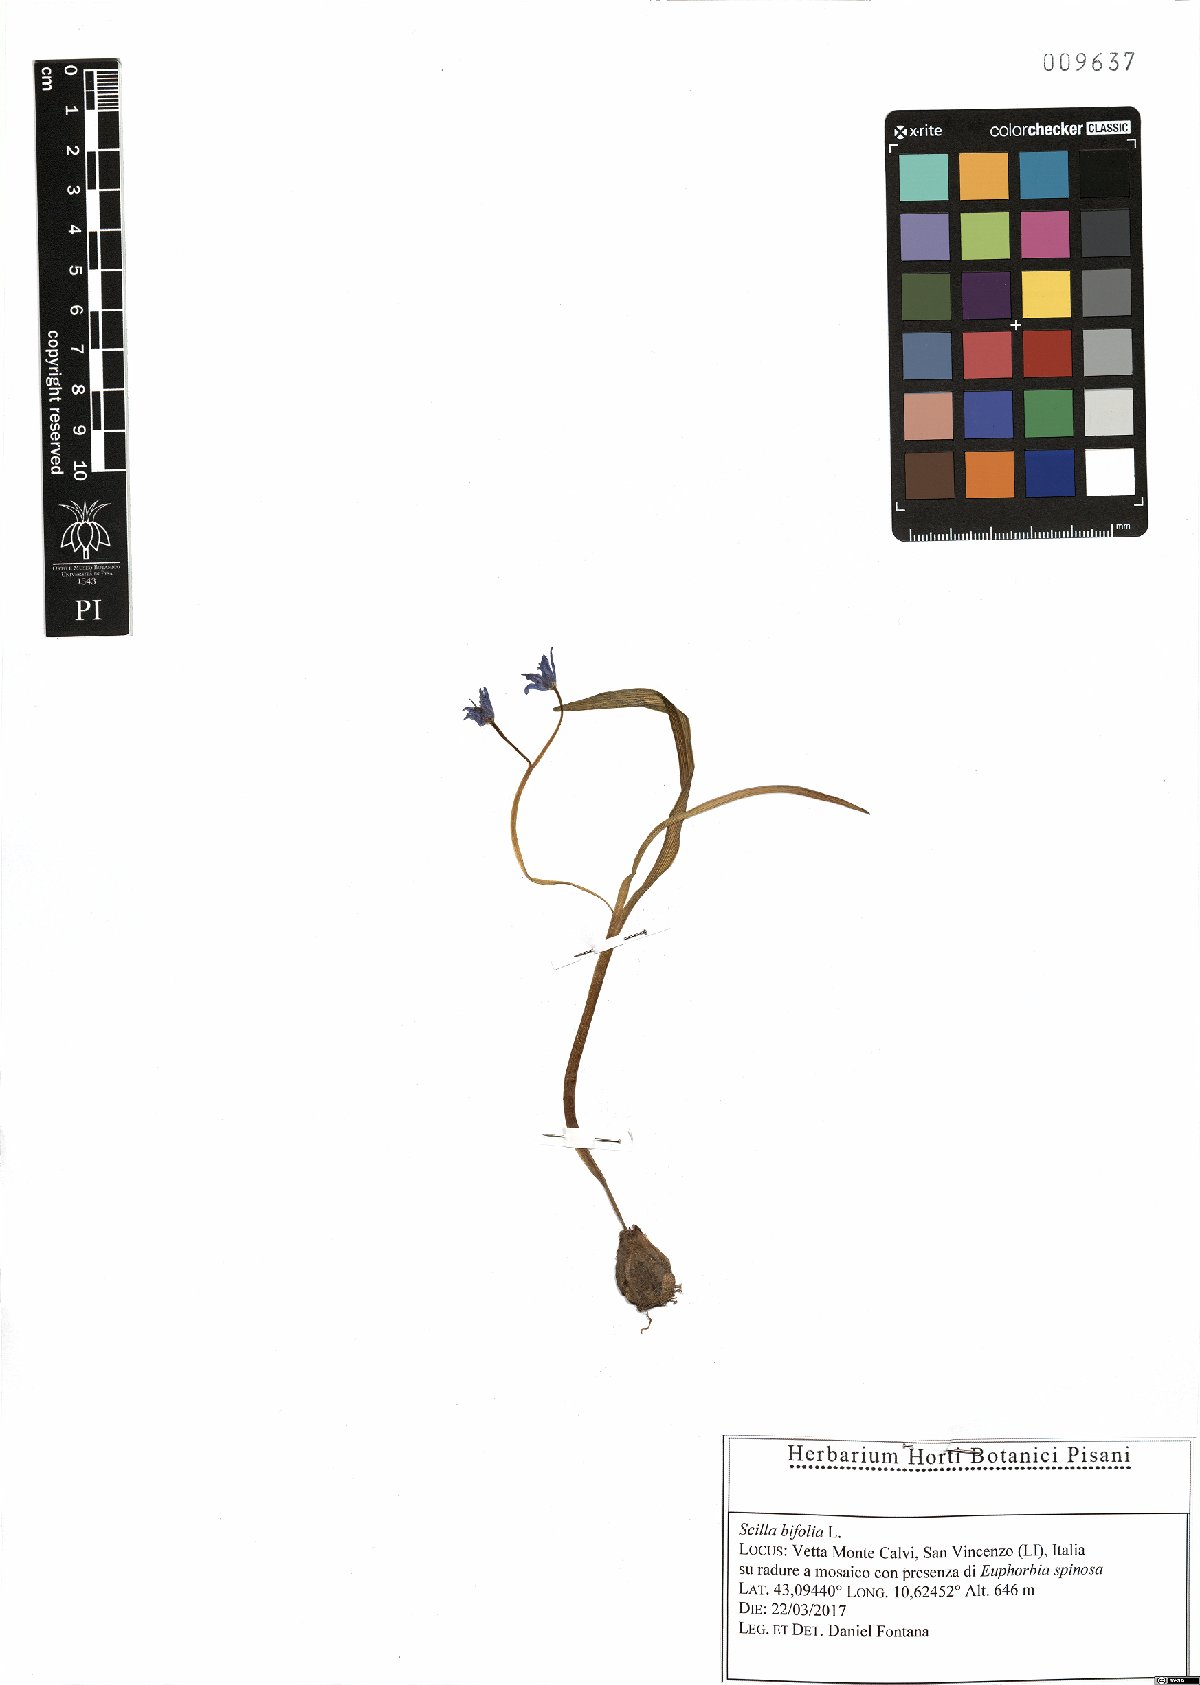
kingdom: Plantae
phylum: Tracheophyta
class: Liliopsida
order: Asparagales
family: Asparagaceae
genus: Scilla
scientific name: Scilla bifolia
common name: Alpine squill
